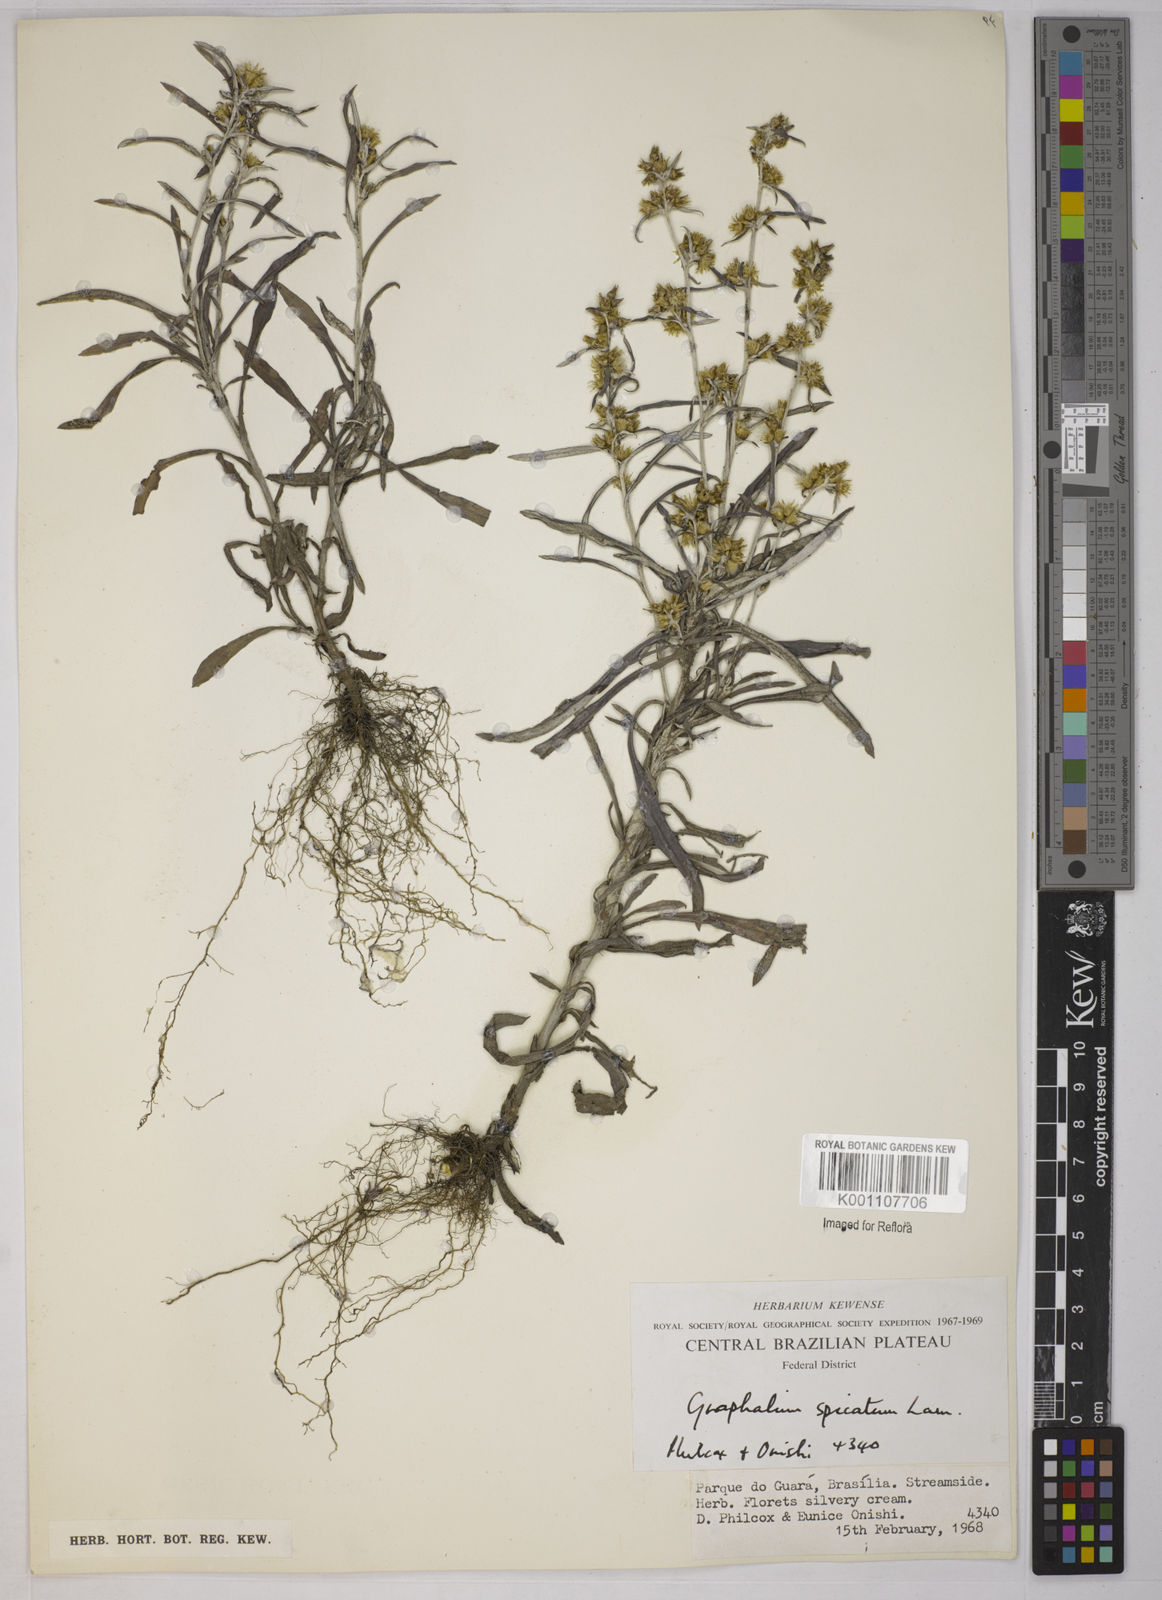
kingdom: Plantae
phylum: Tracheophyta
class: Magnoliopsida
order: Asterales
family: Asteraceae
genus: Pterocaulon
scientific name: Pterocaulon virgatum
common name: Wand blackroot
